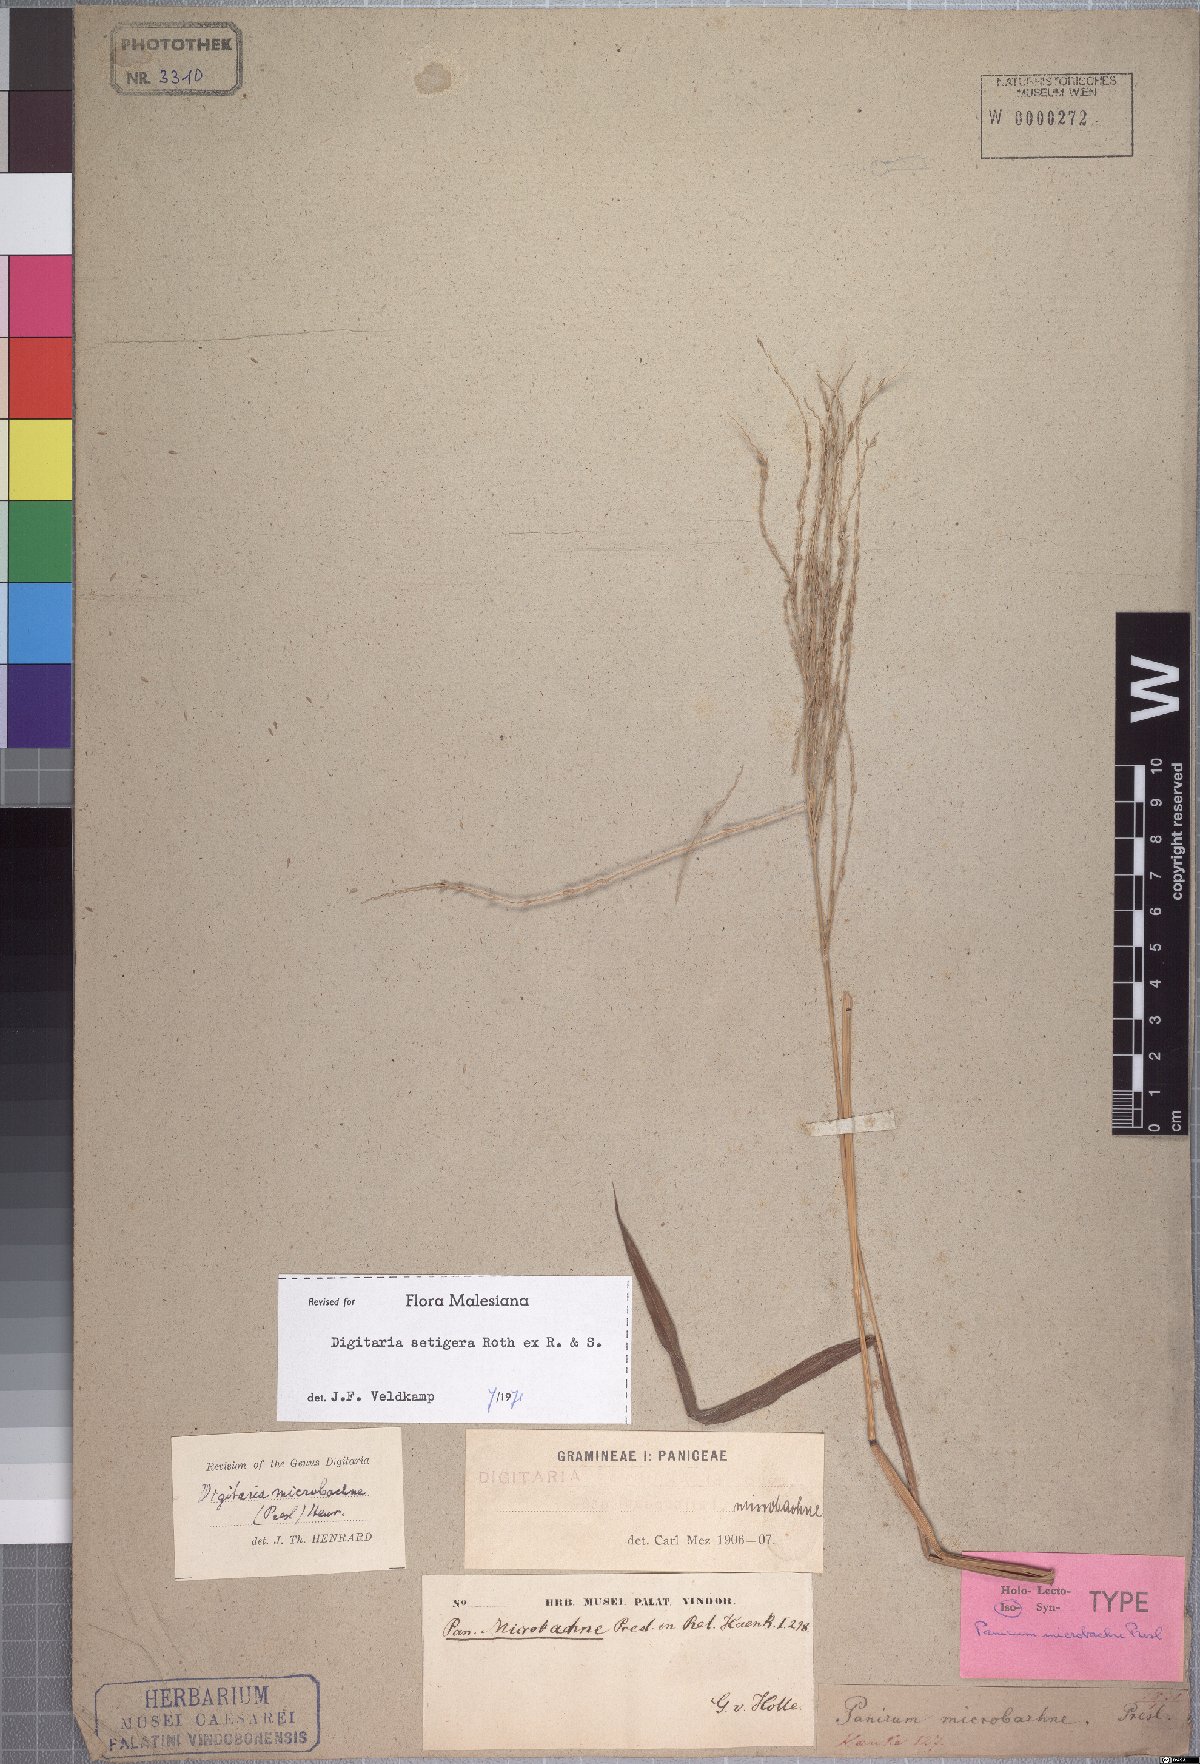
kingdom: Plantae
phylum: Tracheophyta
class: Liliopsida
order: Poales
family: Poaceae
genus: Digitaria
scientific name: Digitaria setigera
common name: East indian crabgrass
